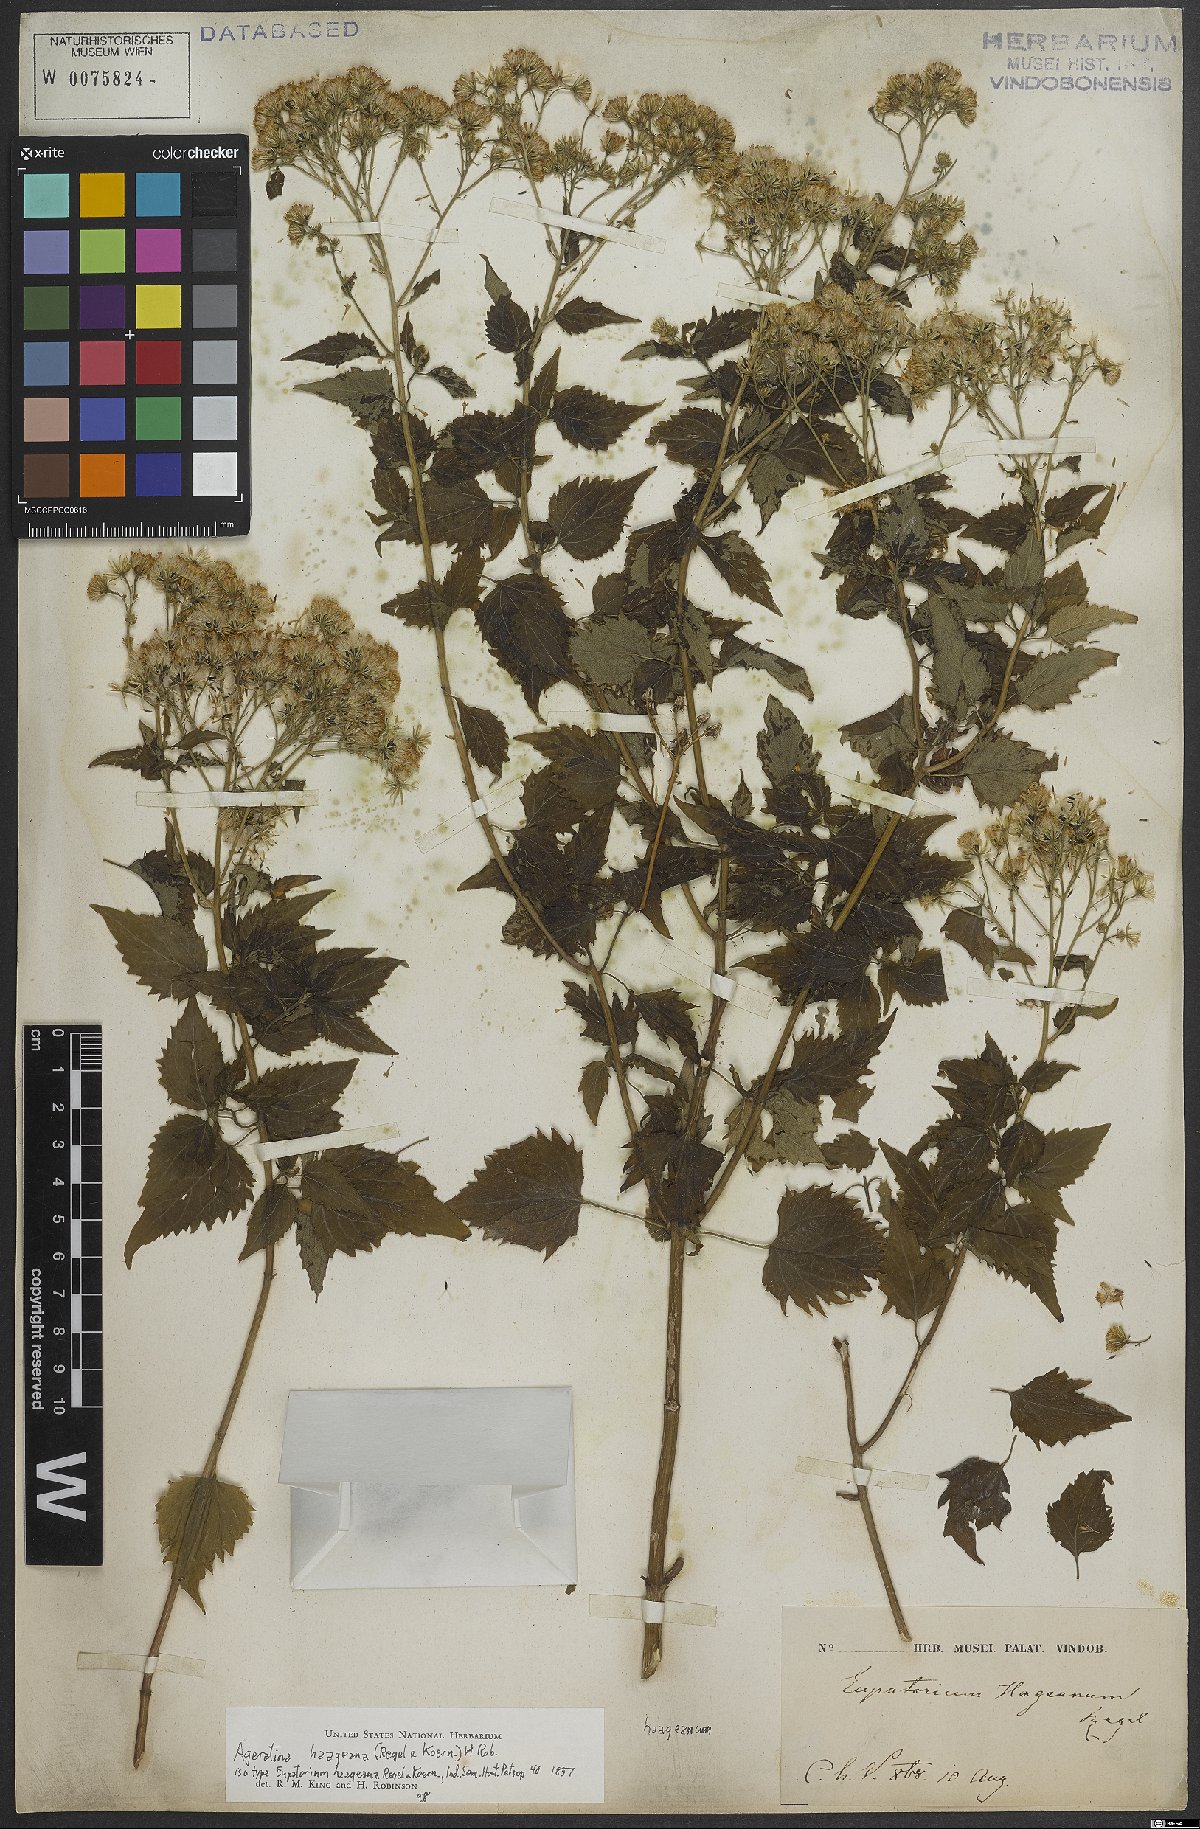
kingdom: Plantae
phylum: Tracheophyta
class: Magnoliopsida
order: Asterales
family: Asteraceae
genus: Ageratina
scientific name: Ageratina pazcuarensis
